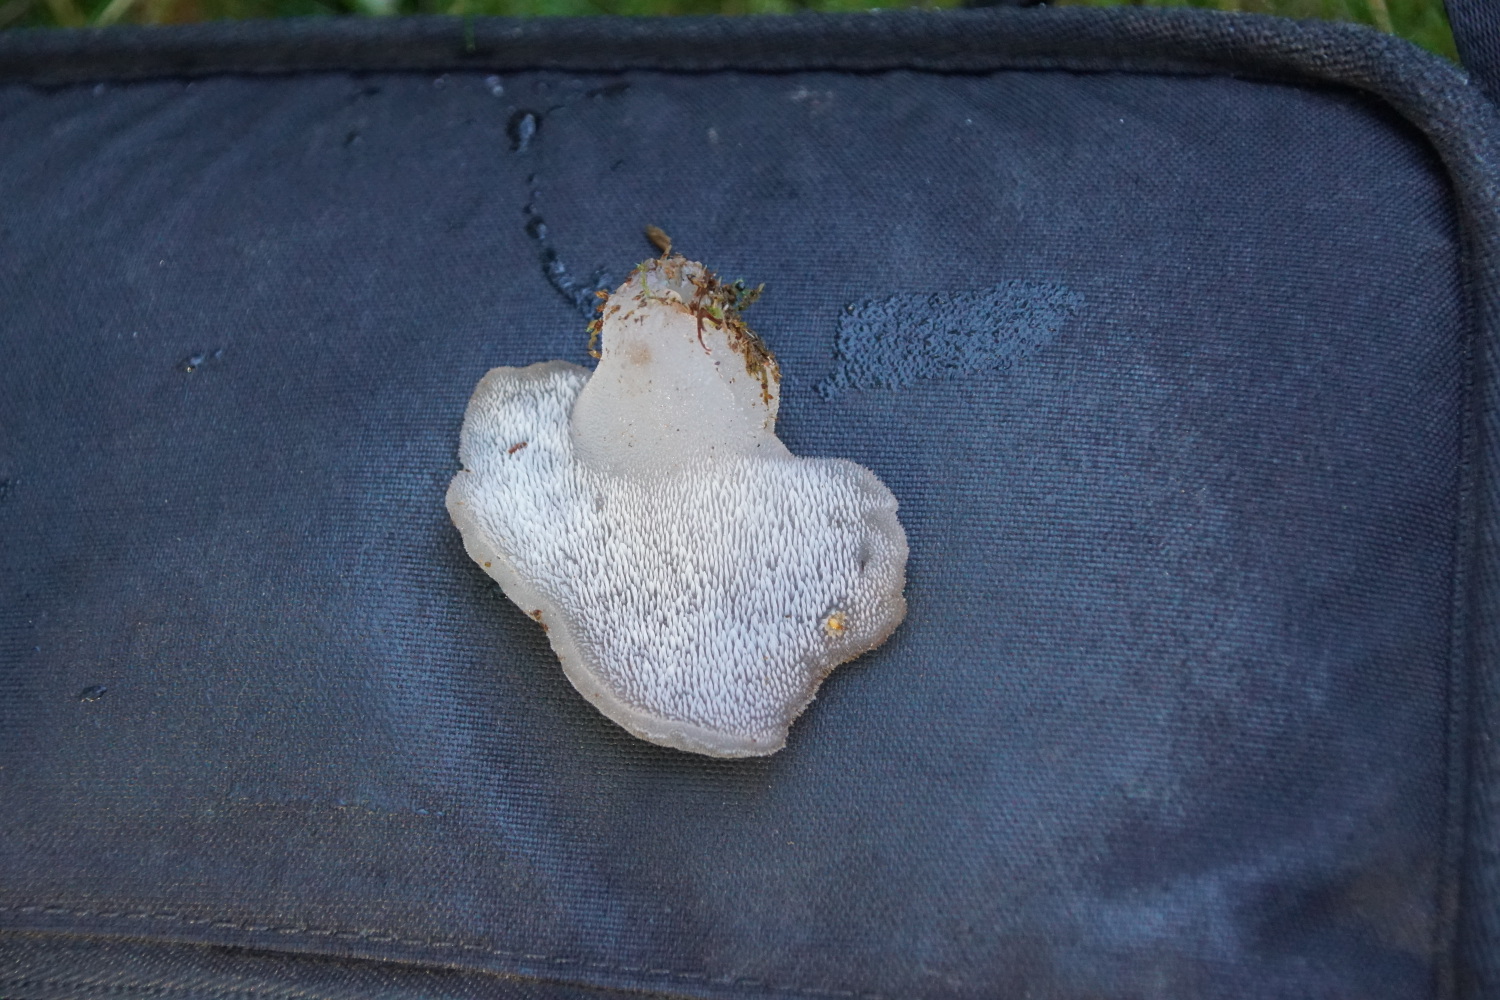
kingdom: Fungi
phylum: Basidiomycota
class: Agaricomycetes
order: Auriculariales
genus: Pseudohydnum
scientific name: Pseudohydnum gelatinosum
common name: bævretand
